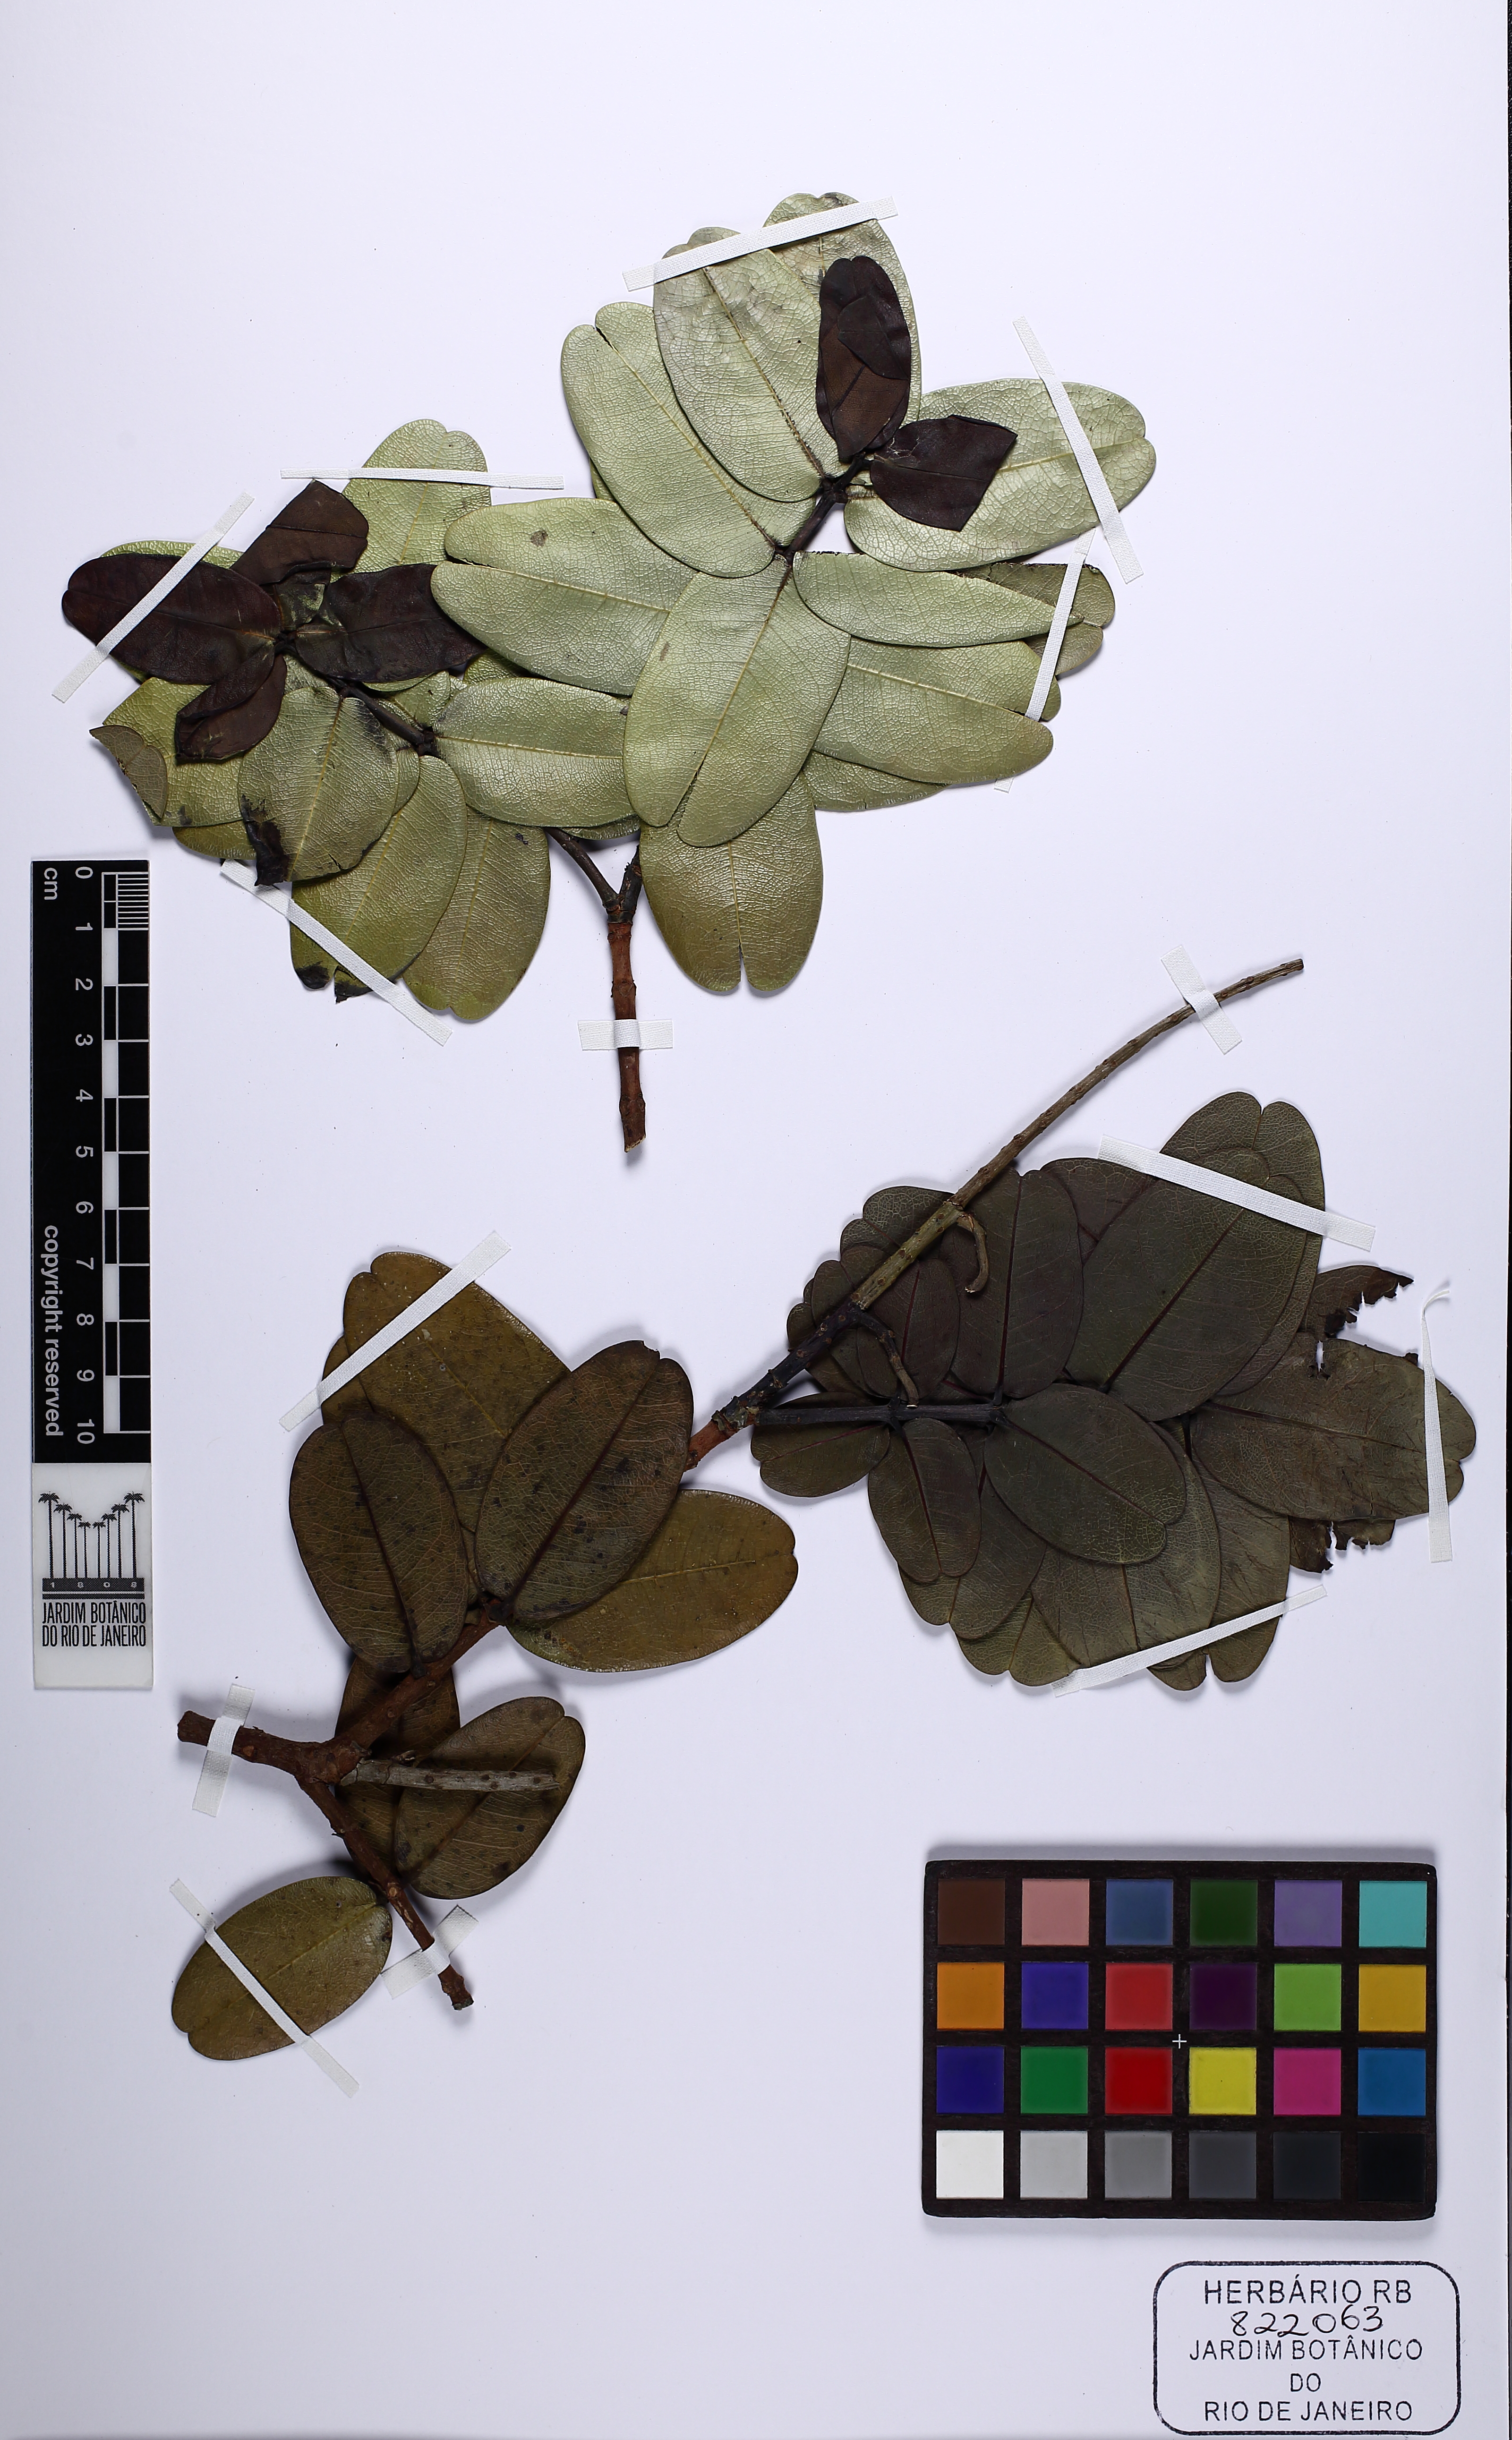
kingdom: Plantae
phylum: Tracheophyta
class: Magnoliopsida
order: Myrtales
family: Vochysiaceae
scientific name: Vochysiaceae
